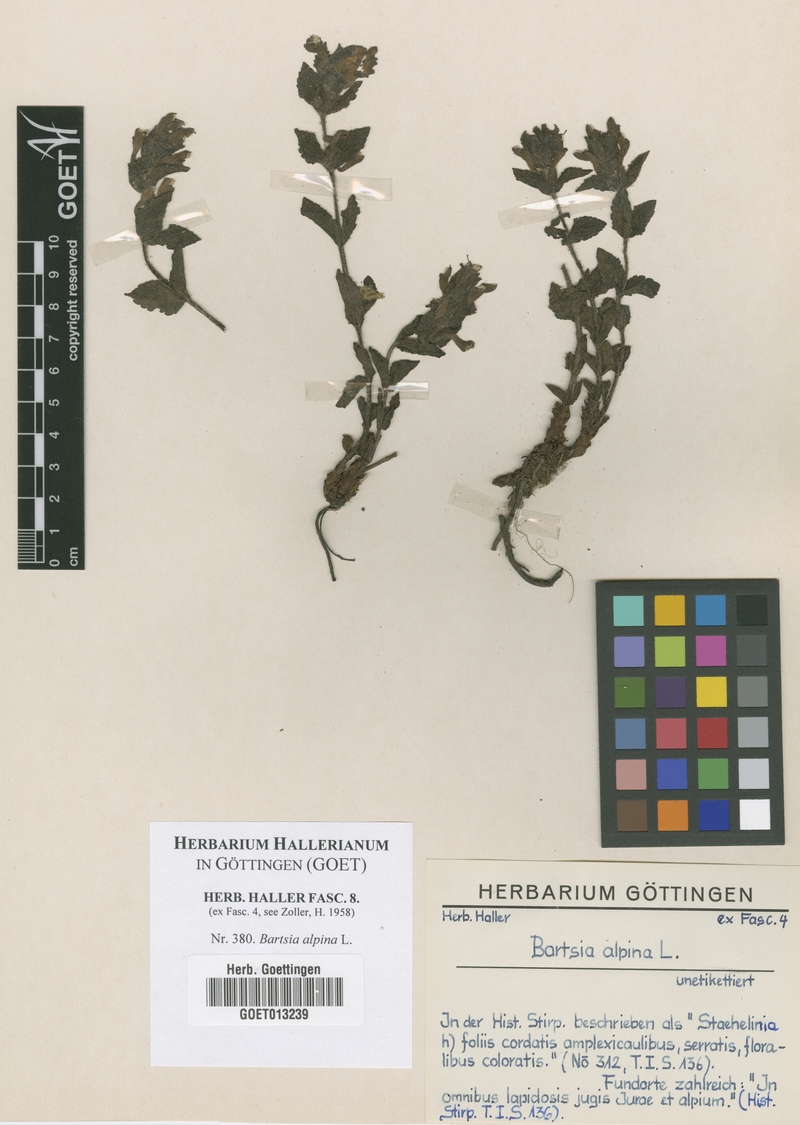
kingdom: Plantae
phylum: Tracheophyta
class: Magnoliopsida
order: Lamiales
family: Orobanchaceae
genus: Bartsia
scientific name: Bartsia alpina
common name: Alpine bartsia
